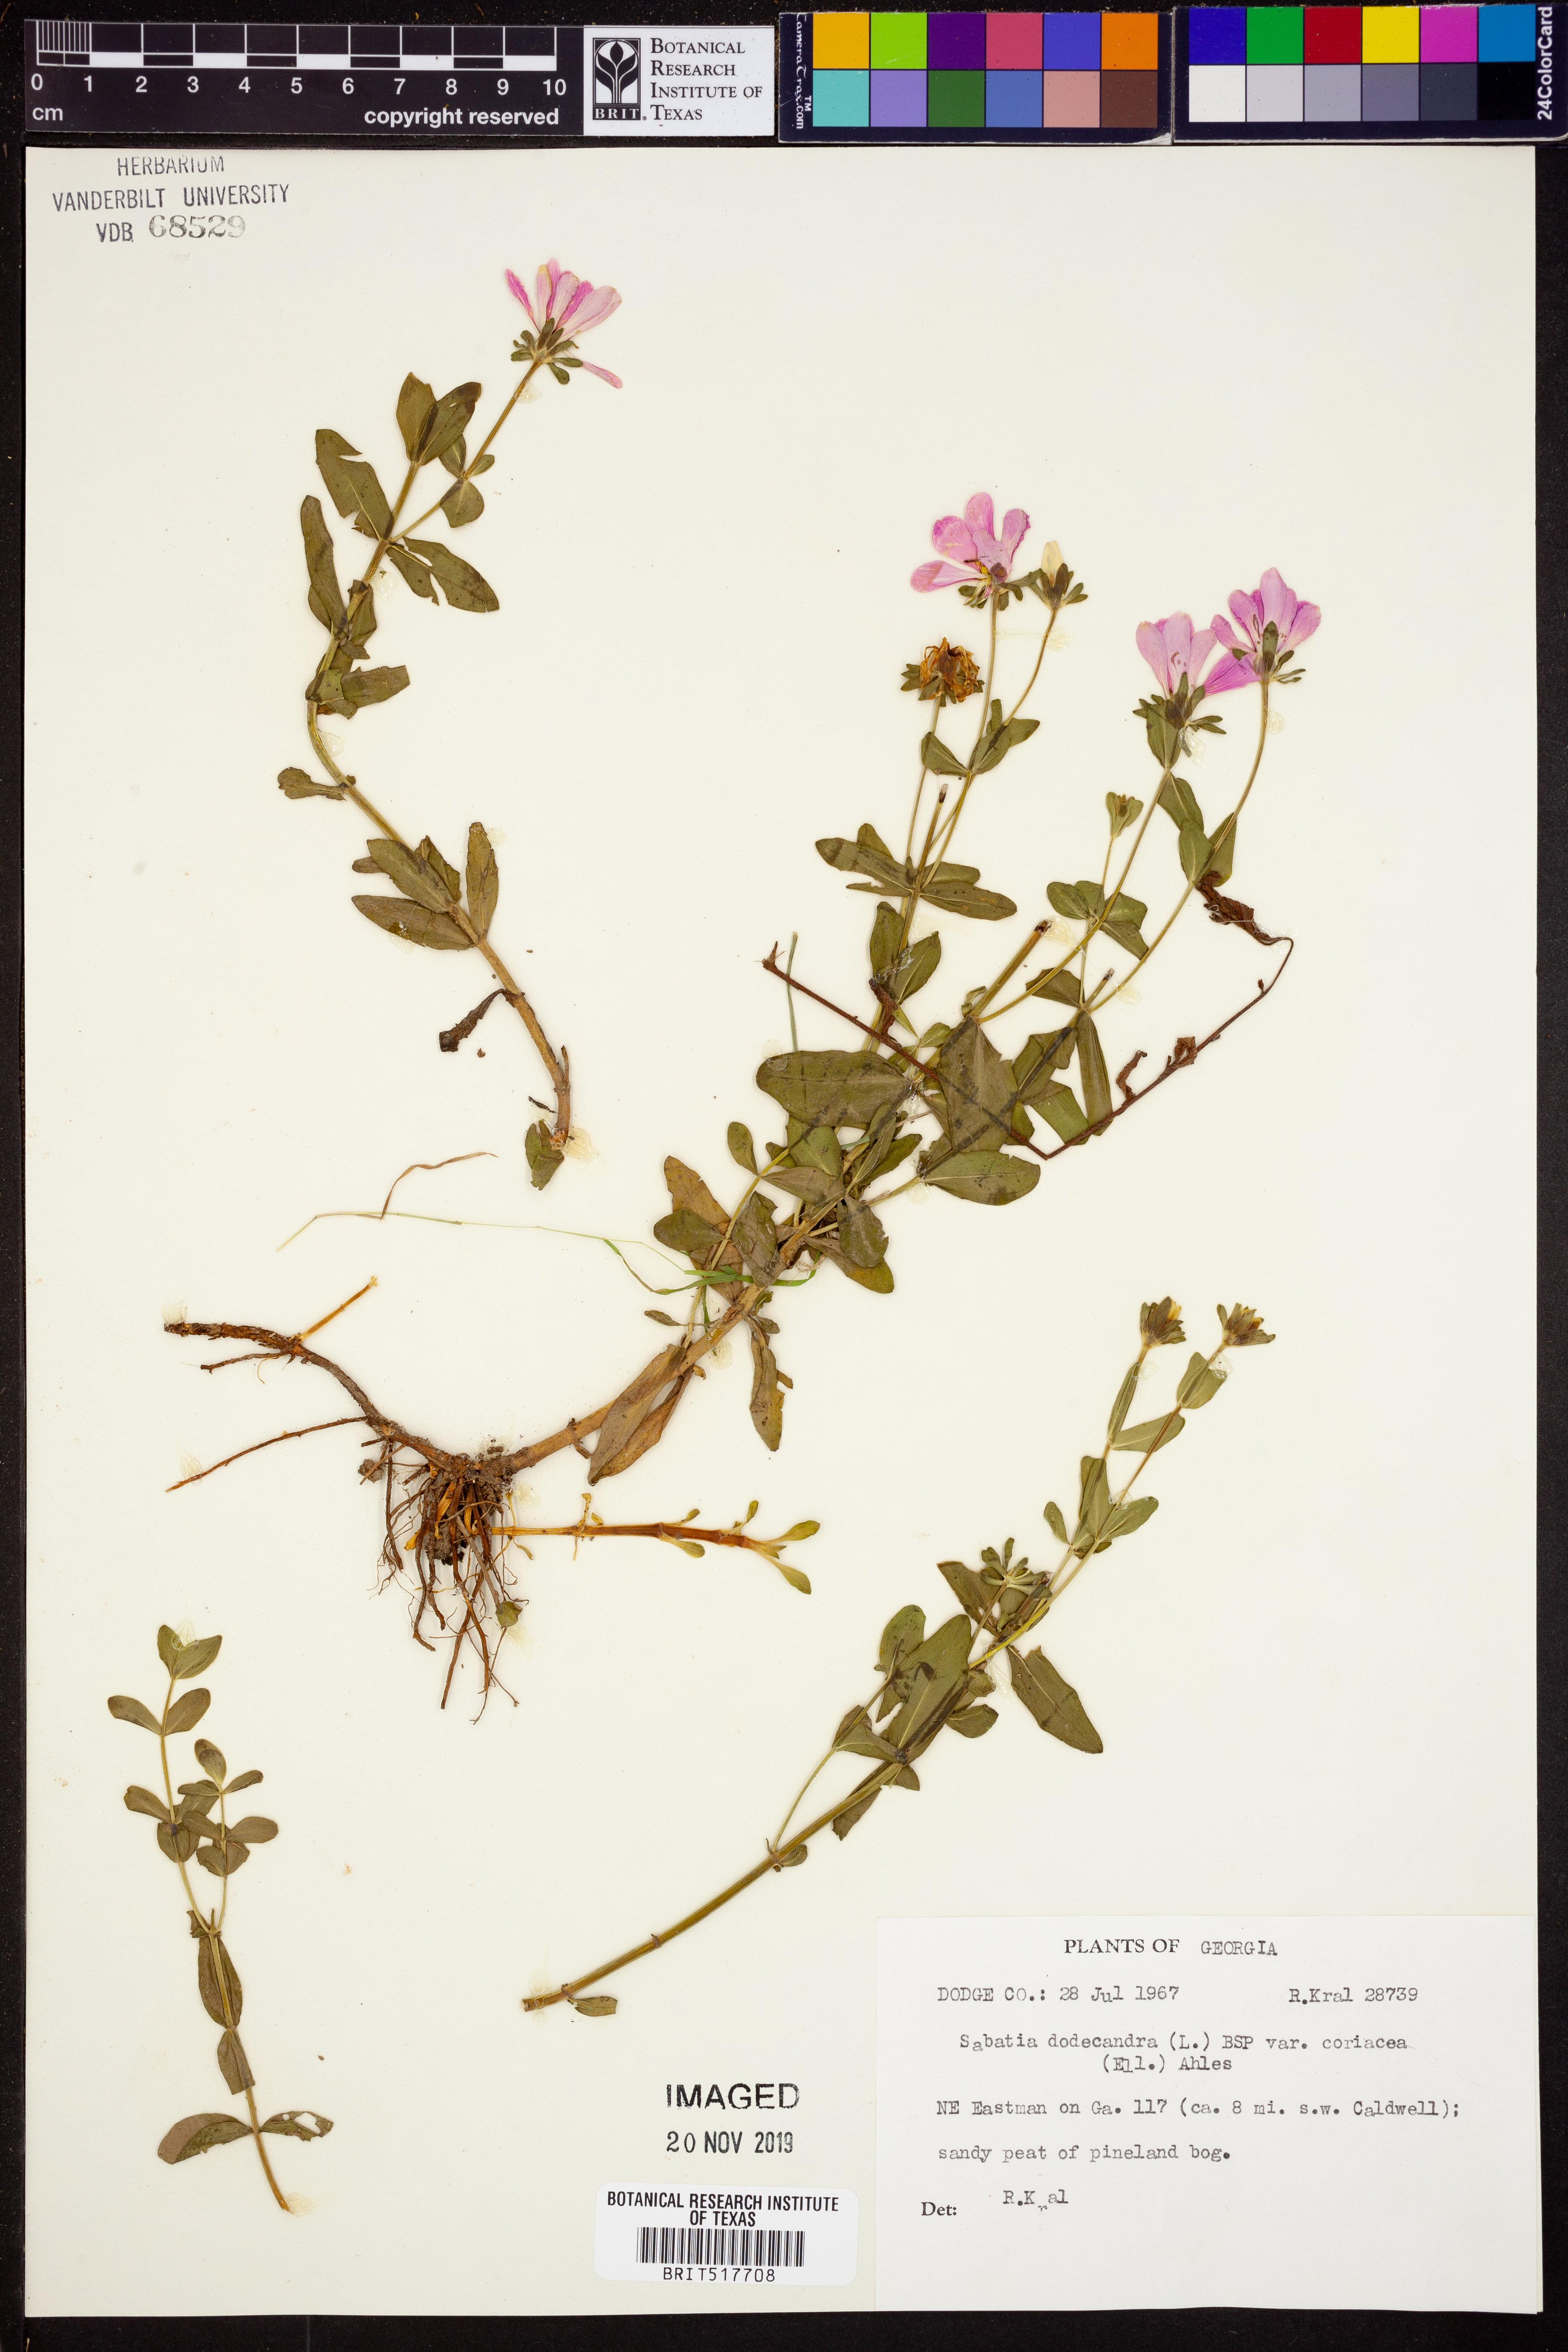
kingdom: Plantae
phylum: Tracheophyta
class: Magnoliopsida
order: Gentianales
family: Gentianaceae
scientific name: Gentianaceae
